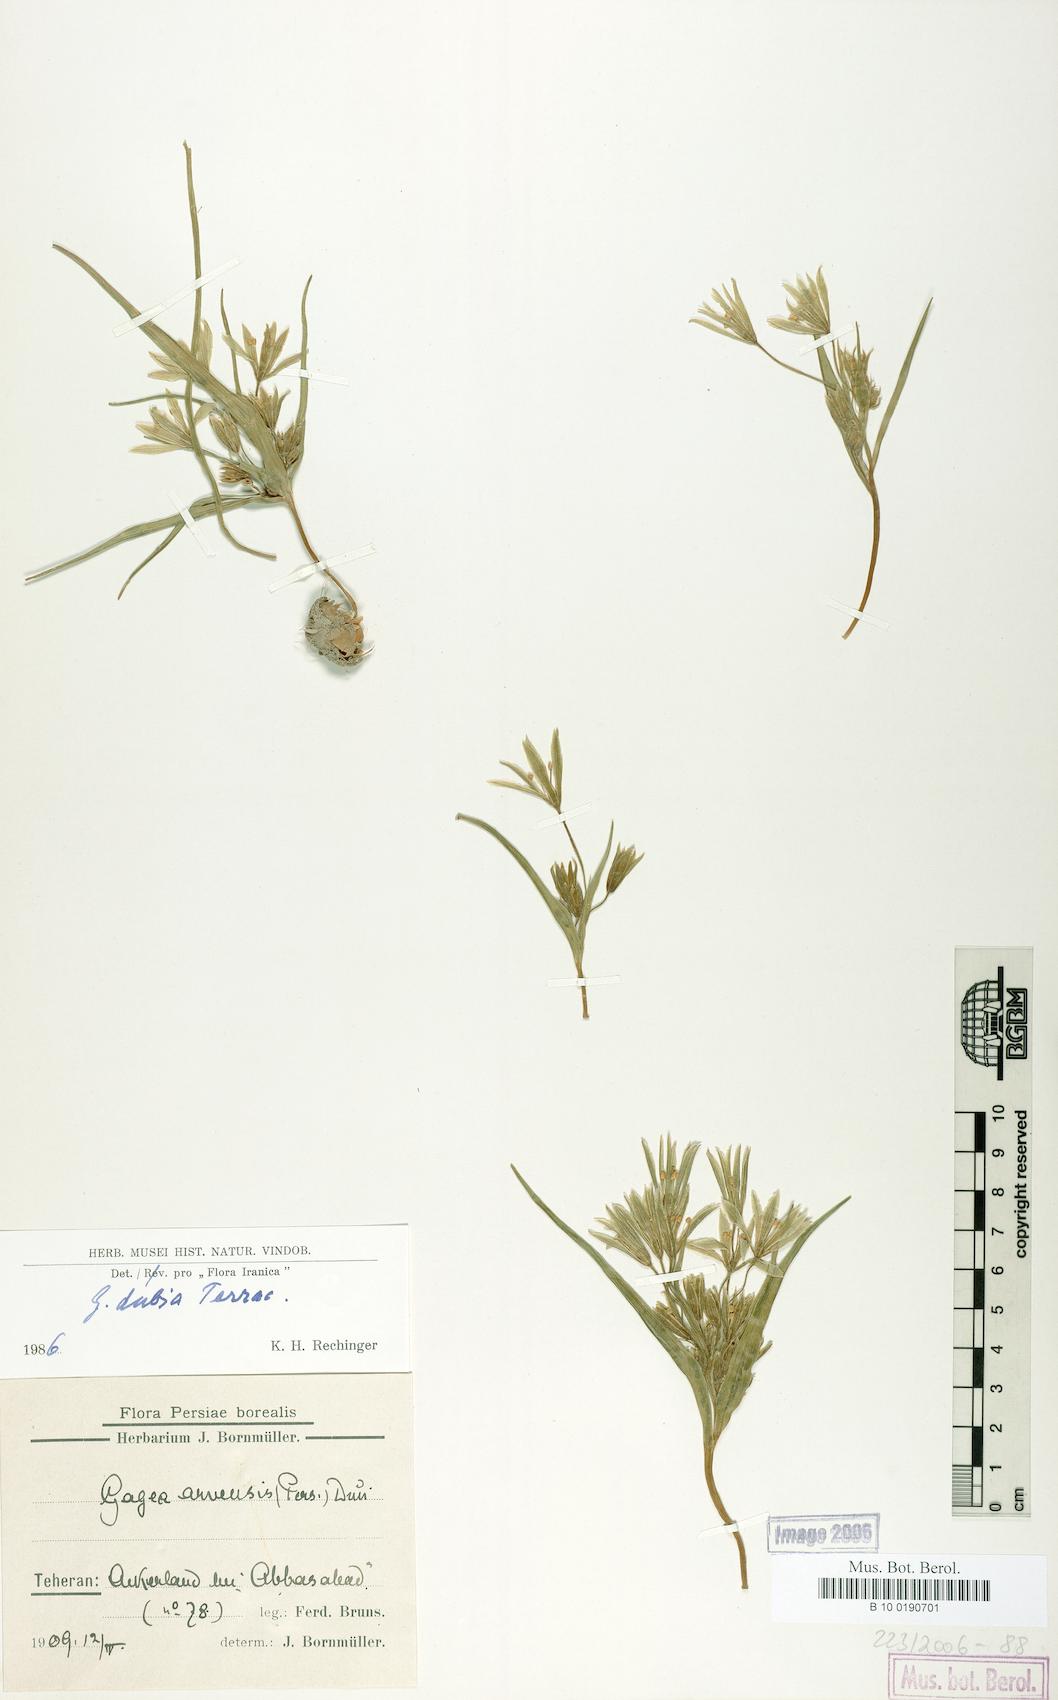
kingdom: Plantae
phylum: Tracheophyta
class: Liliopsida
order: Liliales
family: Liliaceae
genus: Gagea
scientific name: Gagea dubia
